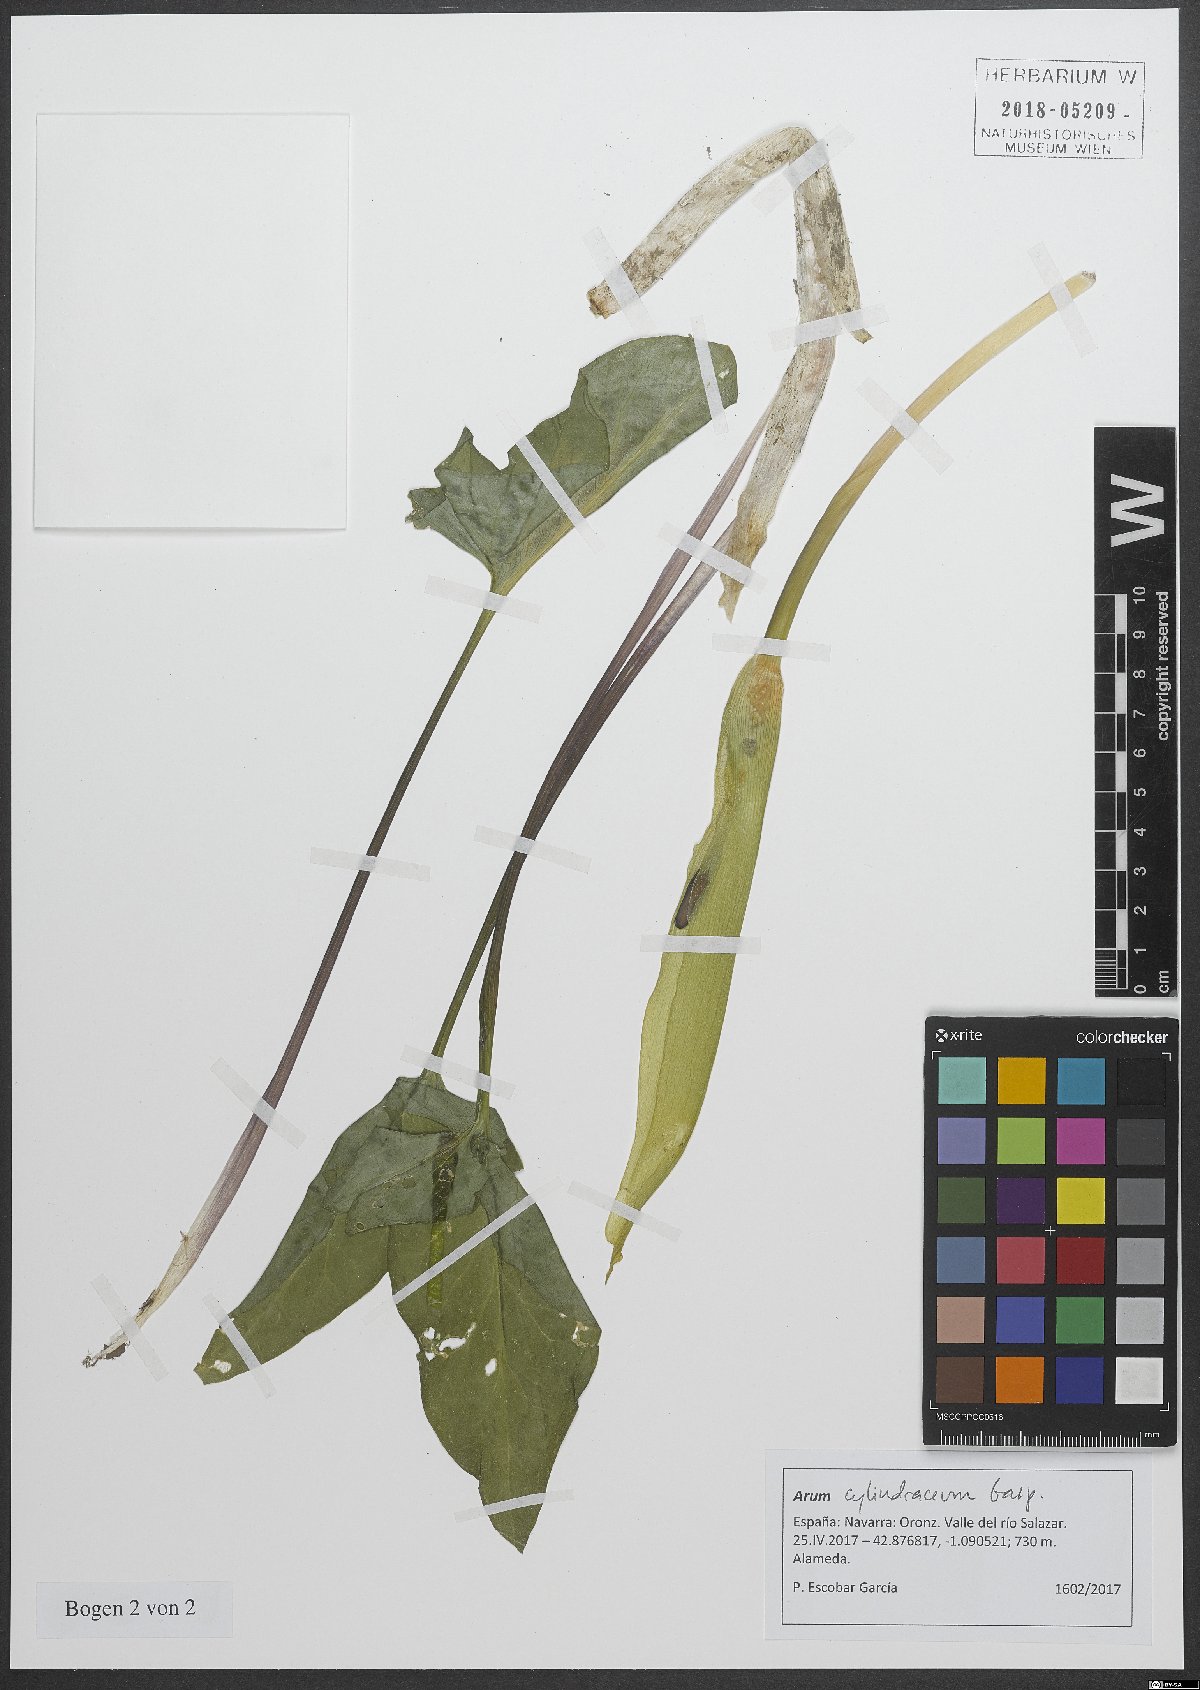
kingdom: Plantae
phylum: Tracheophyta
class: Liliopsida
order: Alismatales
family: Araceae
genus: Arum
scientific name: Arum cylindraceum
